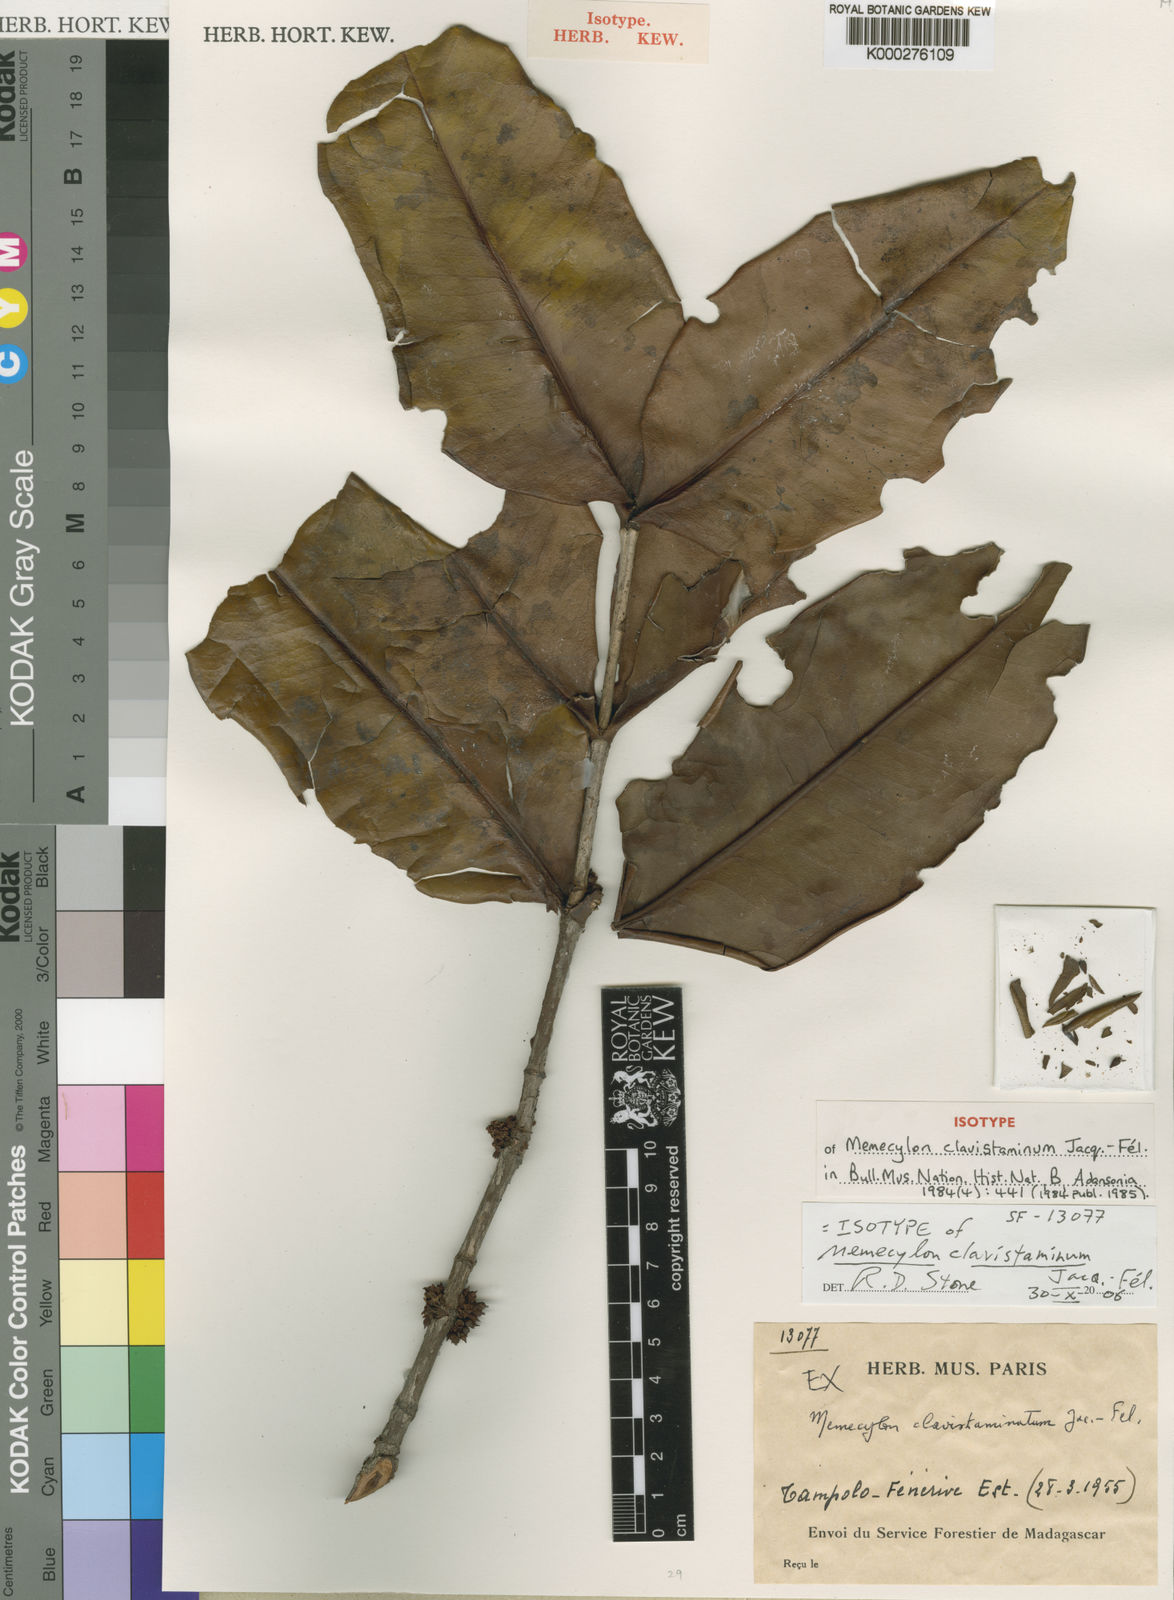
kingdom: Plantae
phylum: Tracheophyta
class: Magnoliopsida
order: Myrtales
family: Melastomataceae
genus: Memecylon
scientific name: Memecylon
